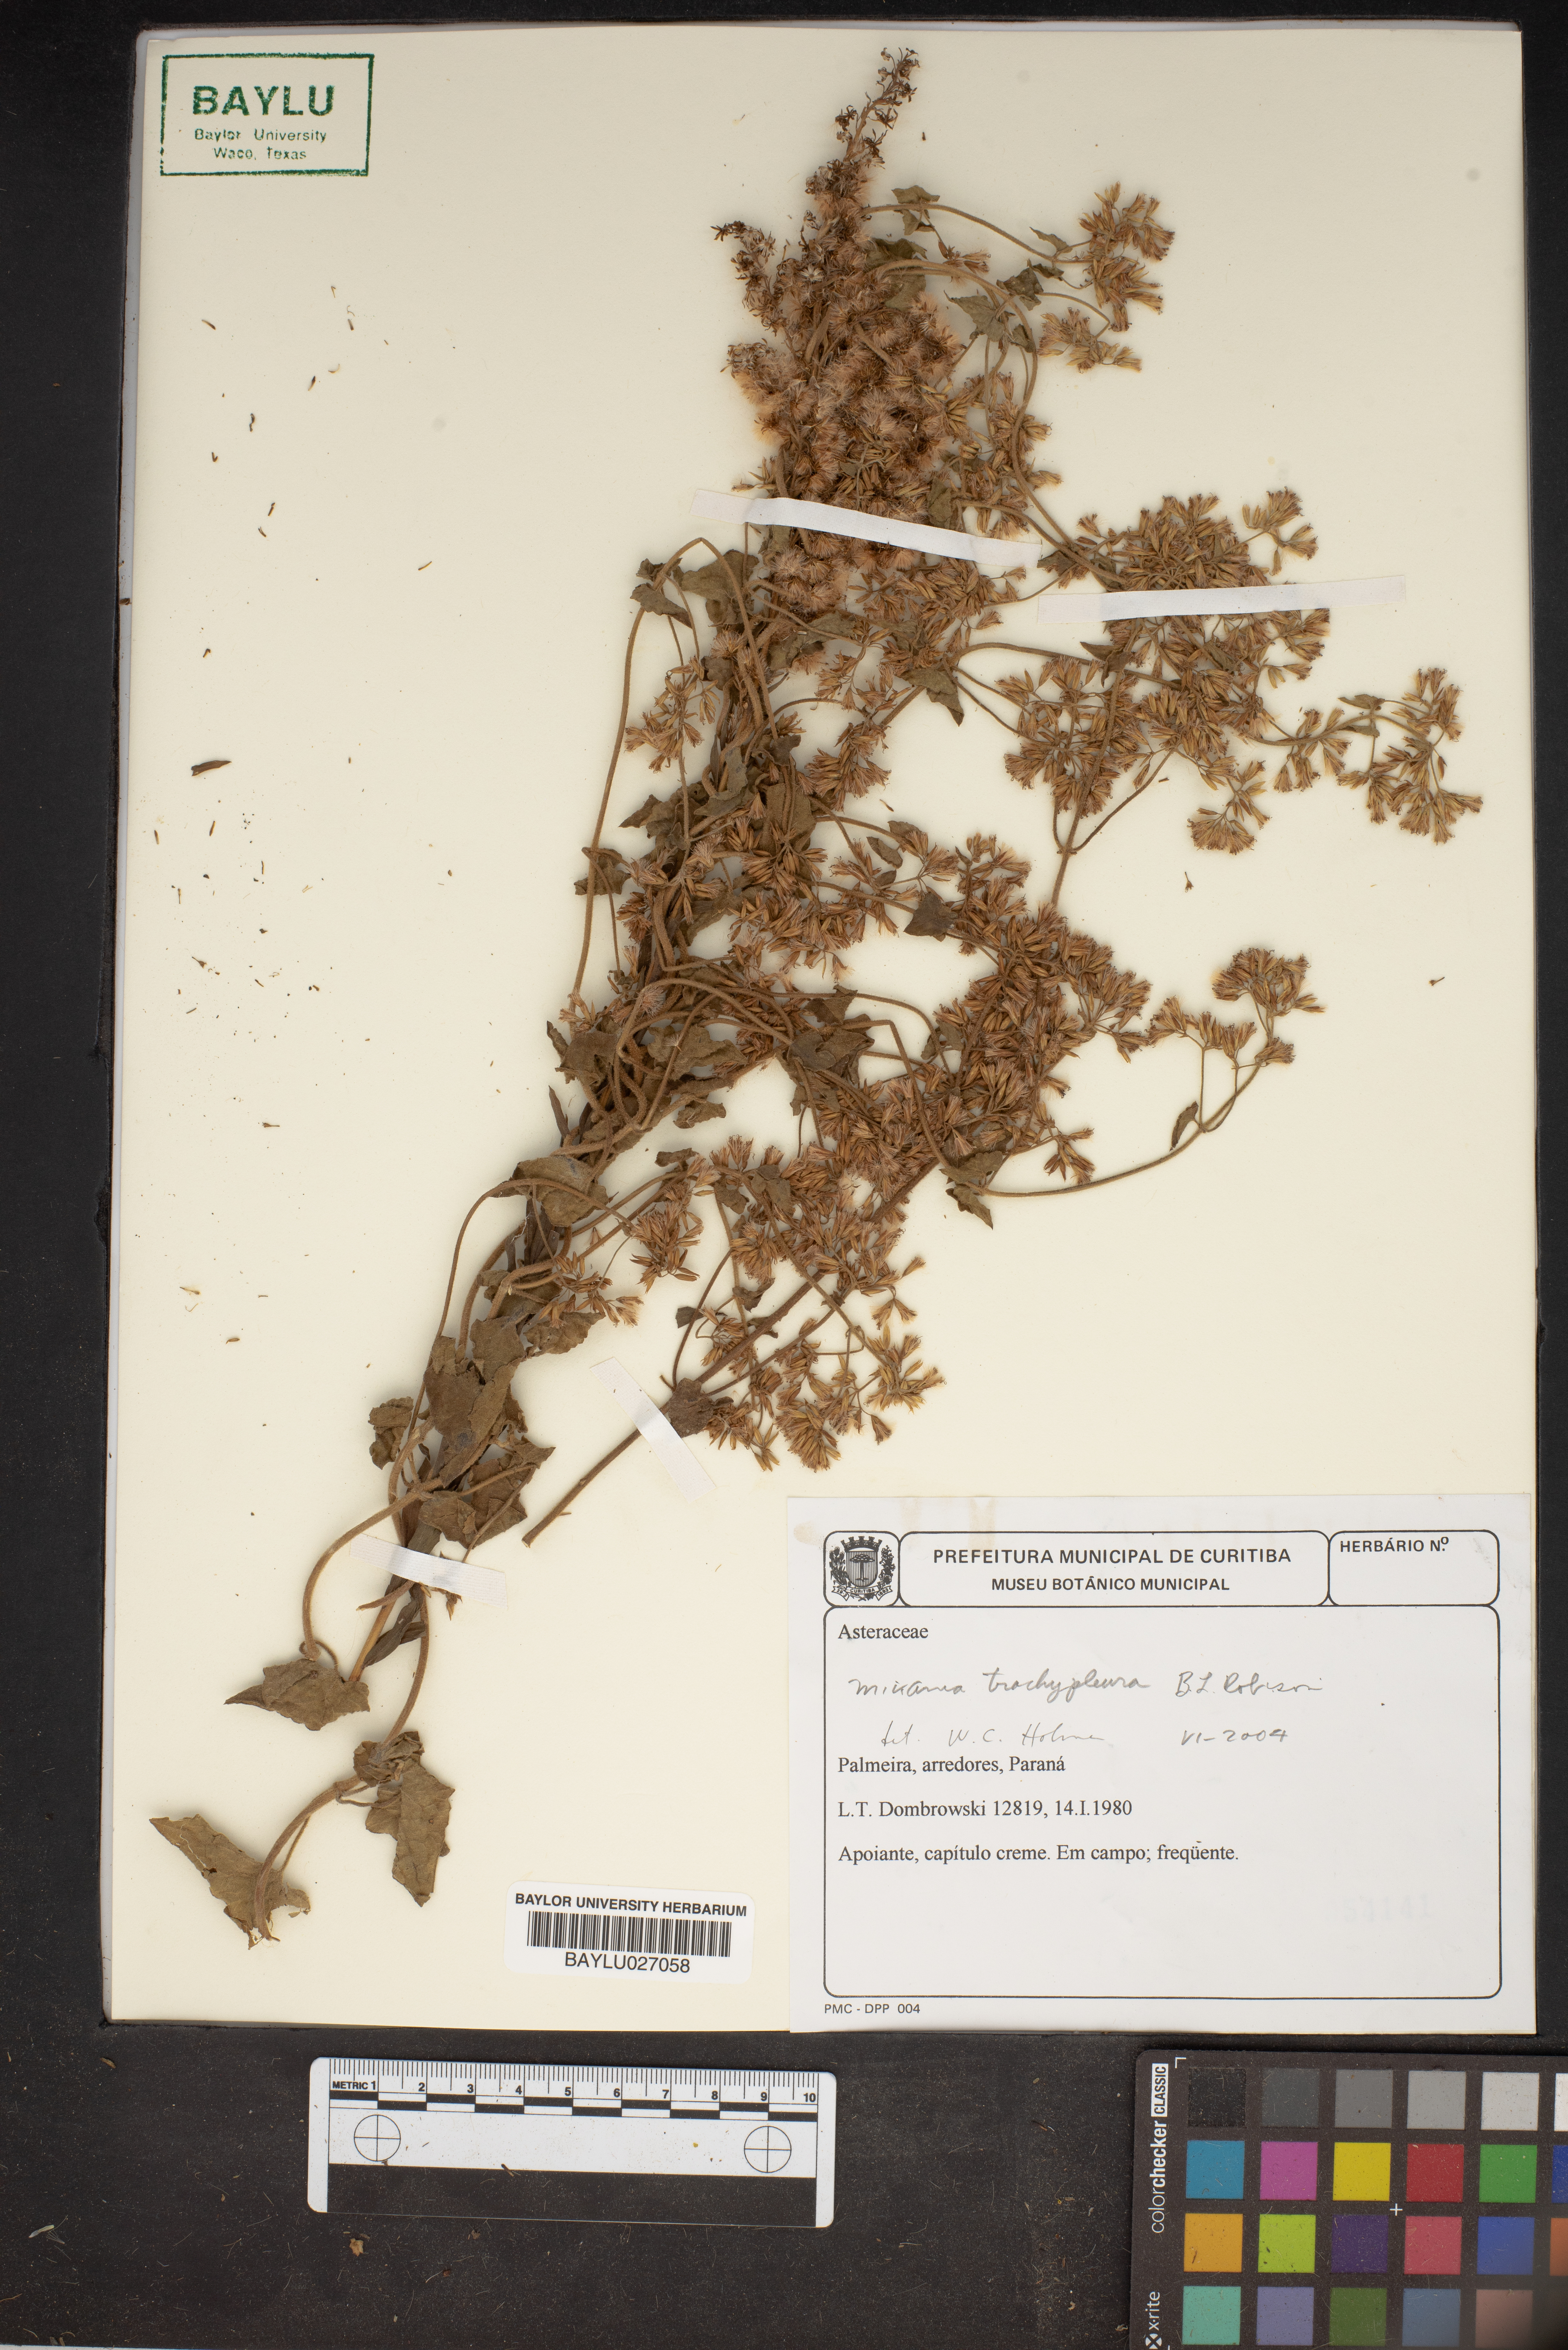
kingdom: Plantae
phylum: Tracheophyta
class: Magnoliopsida
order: Asterales
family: Asteraceae
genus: Mikania
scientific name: Mikania trachypleura
